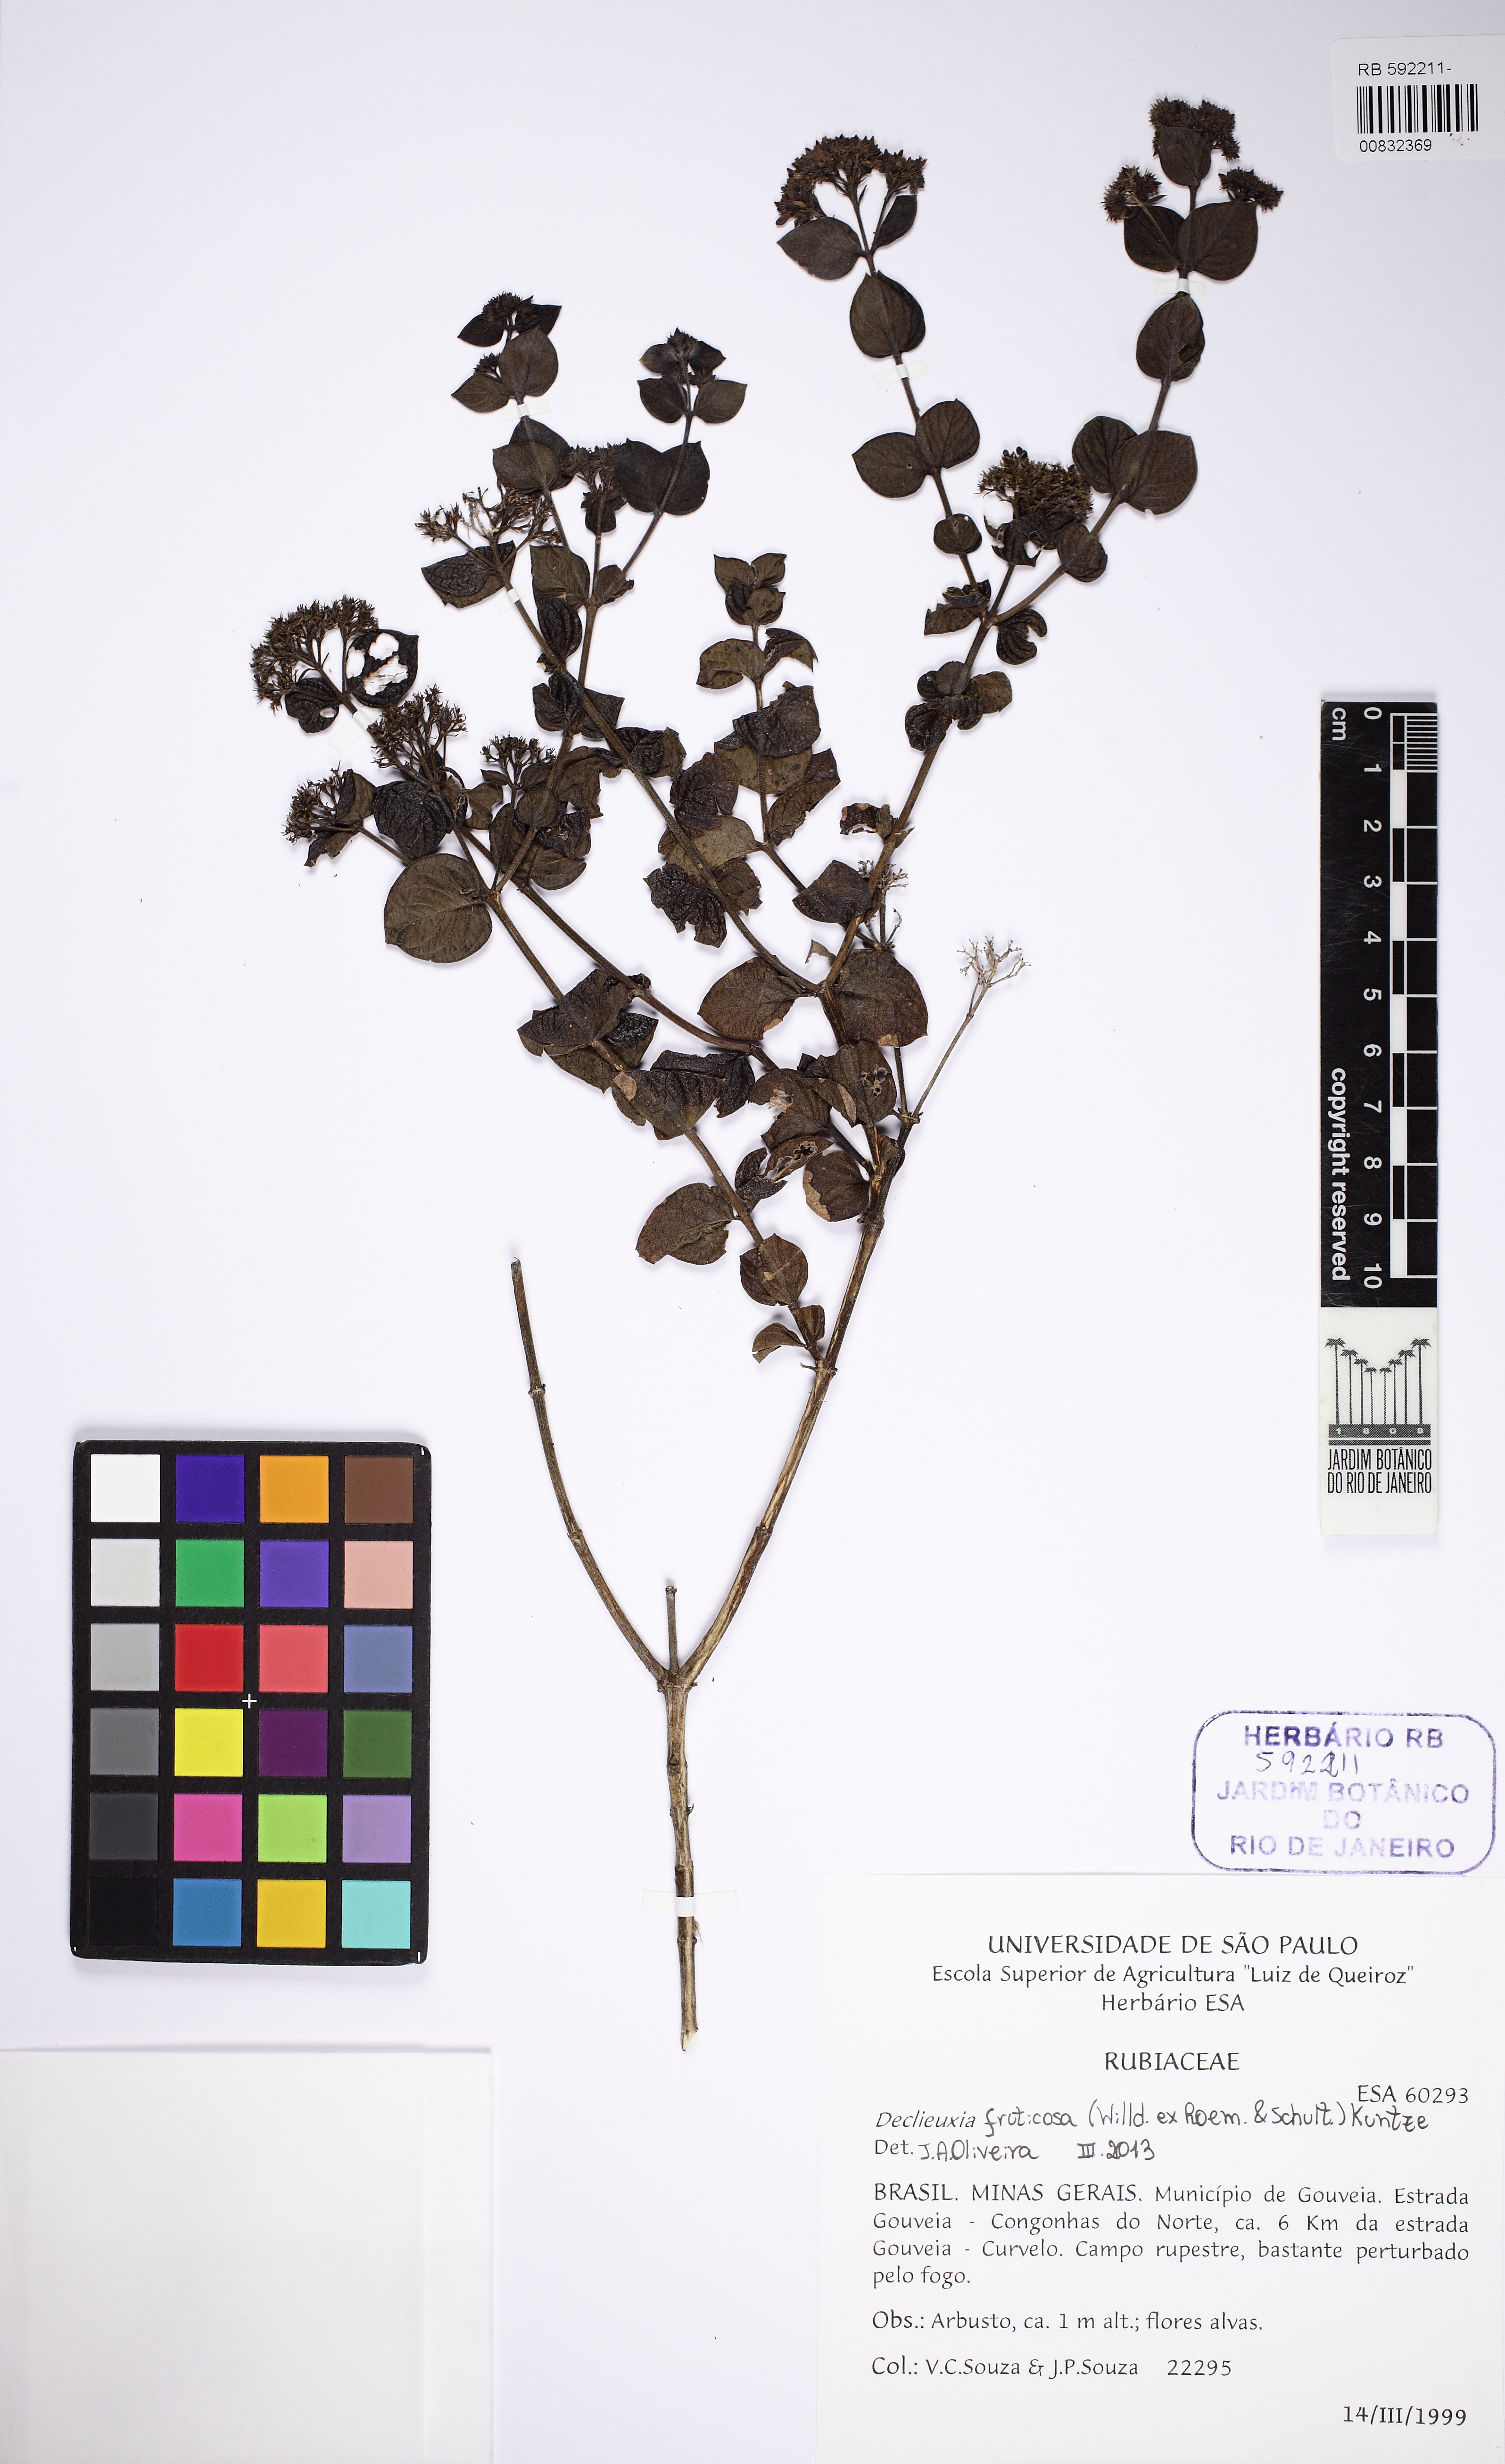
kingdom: Plantae
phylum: Tracheophyta
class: Magnoliopsida
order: Gentianales
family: Rubiaceae
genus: Declieuxia
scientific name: Declieuxia fruticosa
